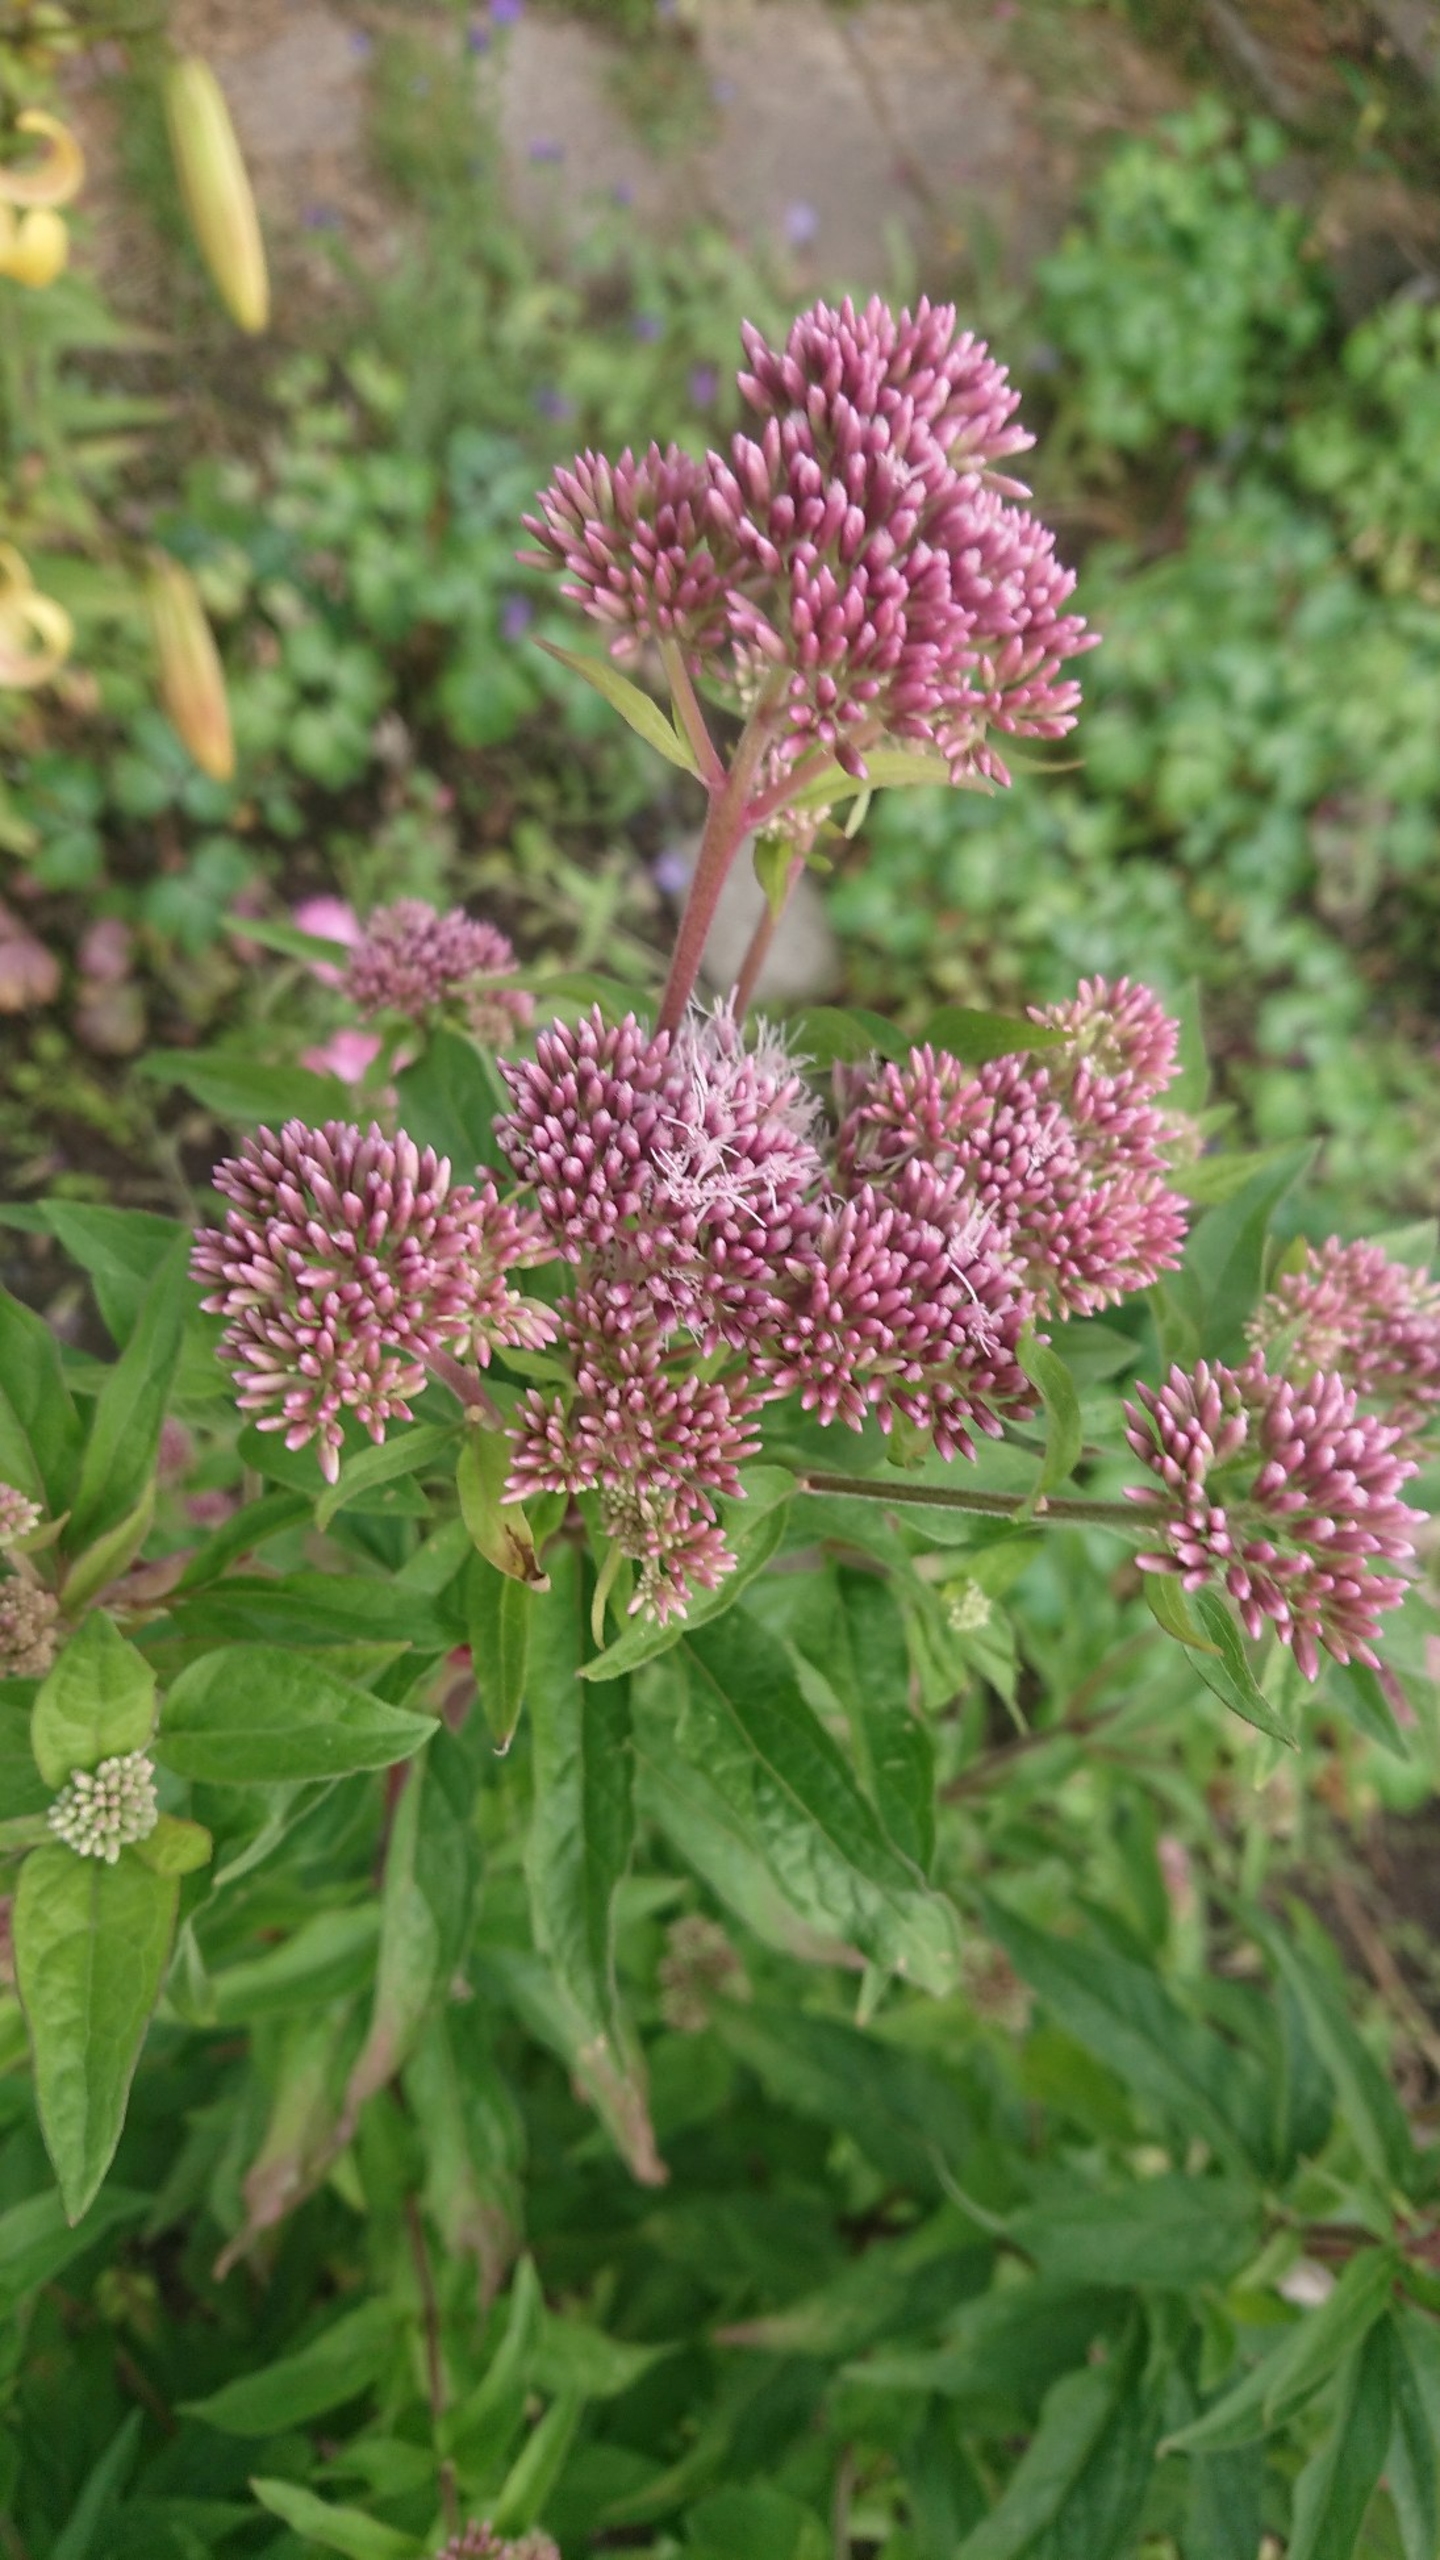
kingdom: Plantae
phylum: Tracheophyta
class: Magnoliopsida
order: Asterales
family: Asteraceae
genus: Eupatorium
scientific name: Eupatorium cannabinum
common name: Hjortetrøst
